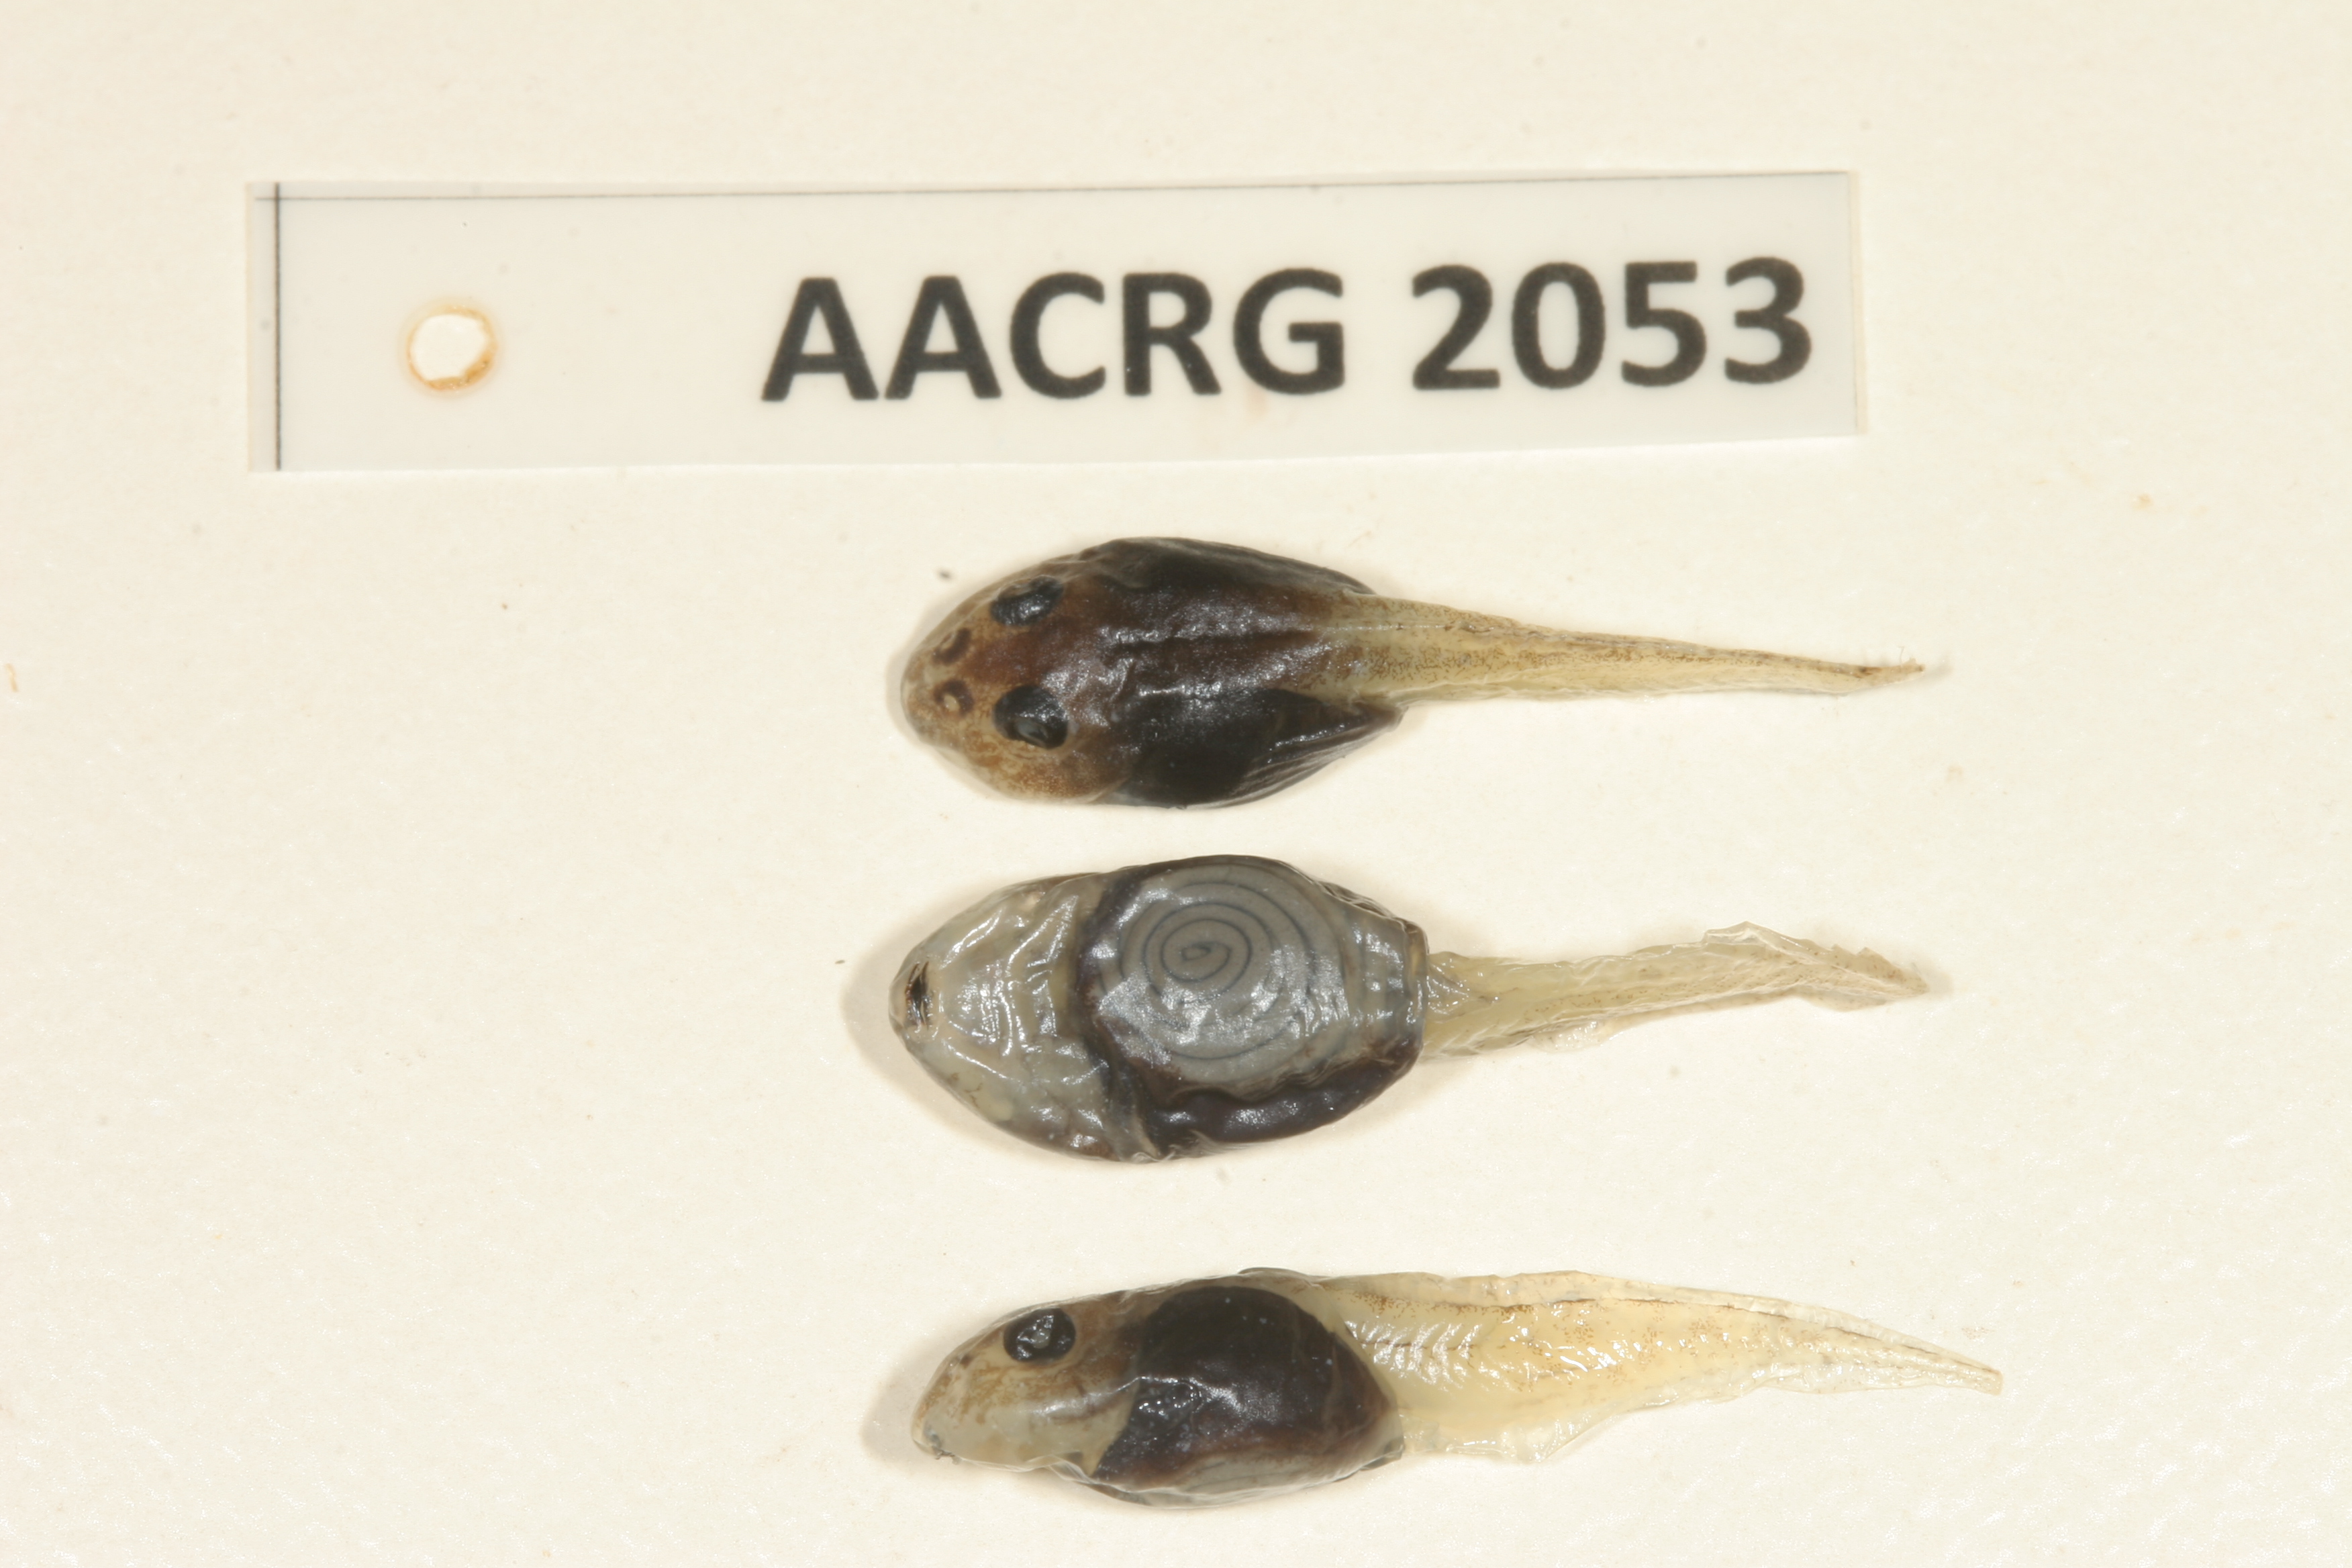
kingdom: Animalia
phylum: Chordata
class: Amphibia
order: Anura
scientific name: Anura
